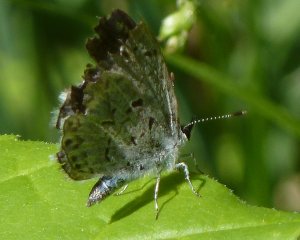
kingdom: Animalia
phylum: Arthropoda
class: Insecta
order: Lepidoptera
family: Lycaenidae
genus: Celastrina
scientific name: Celastrina lucia
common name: Northern Spring Azure
